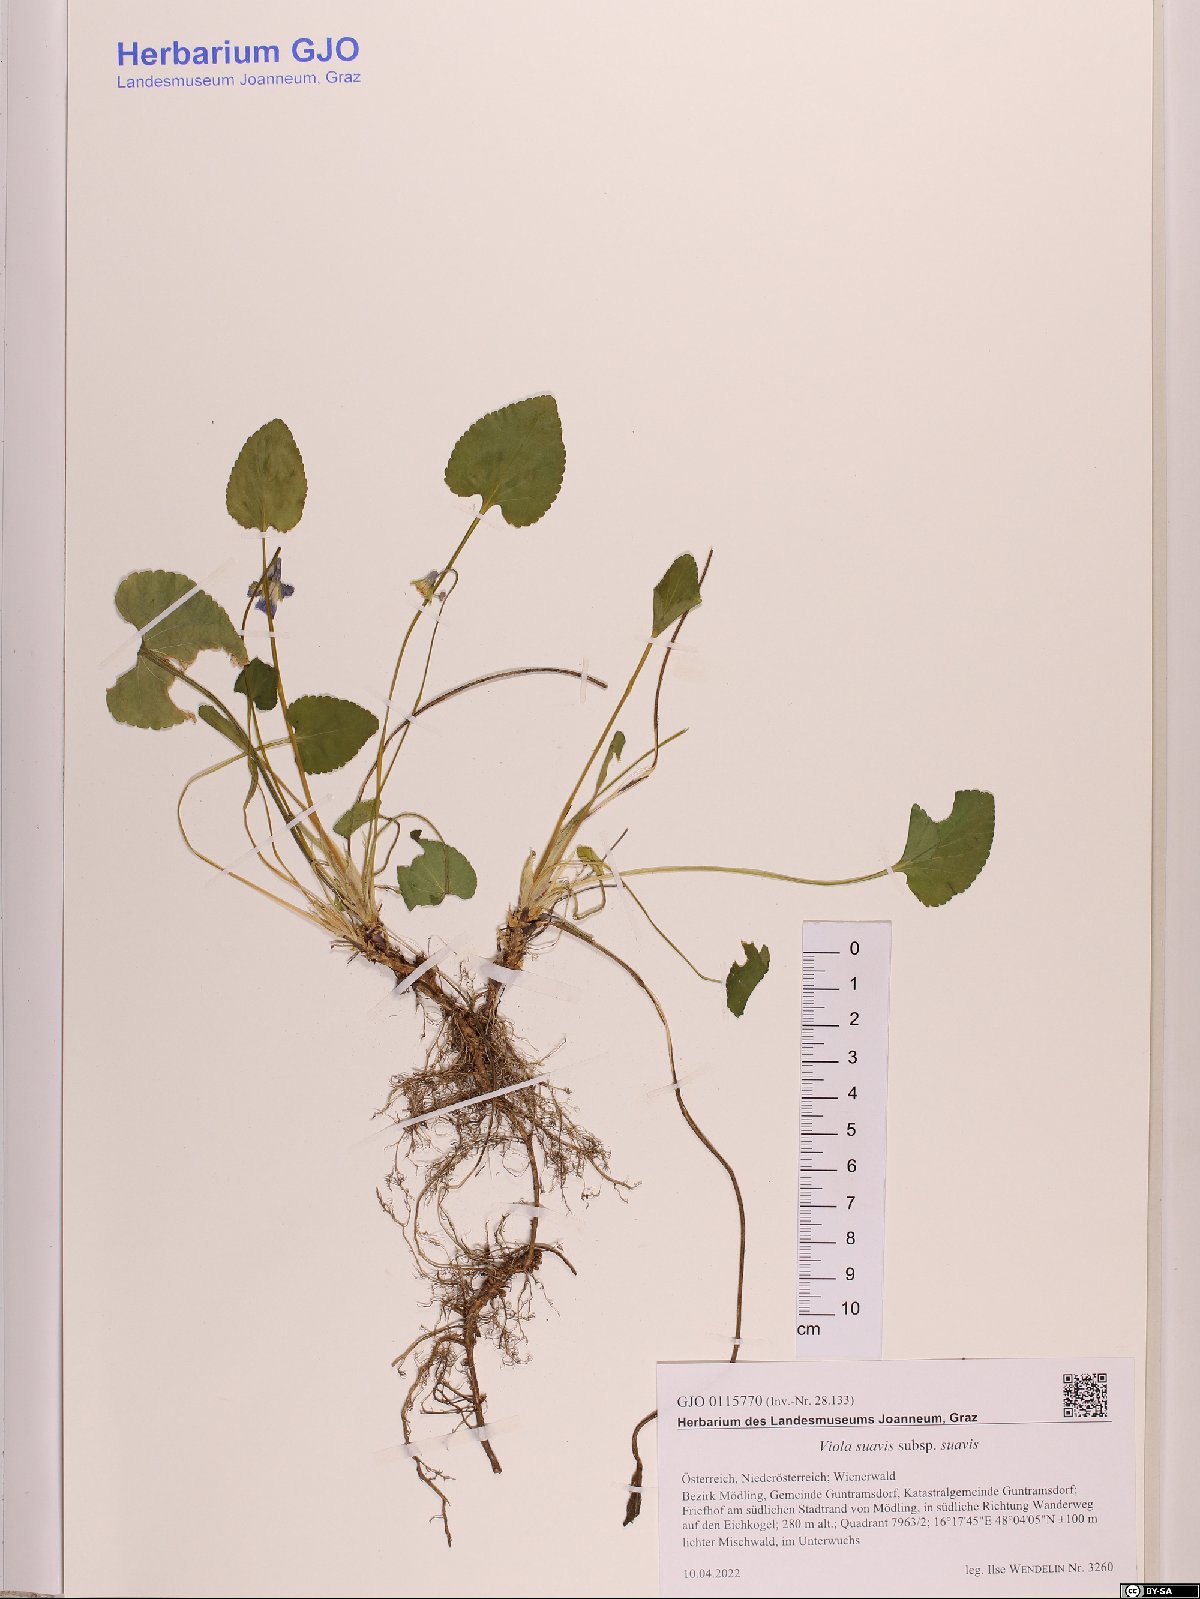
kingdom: Plantae
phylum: Tracheophyta
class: Magnoliopsida
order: Malpighiales
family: Violaceae
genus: Viola
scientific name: Viola suavis
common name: Russian violet
